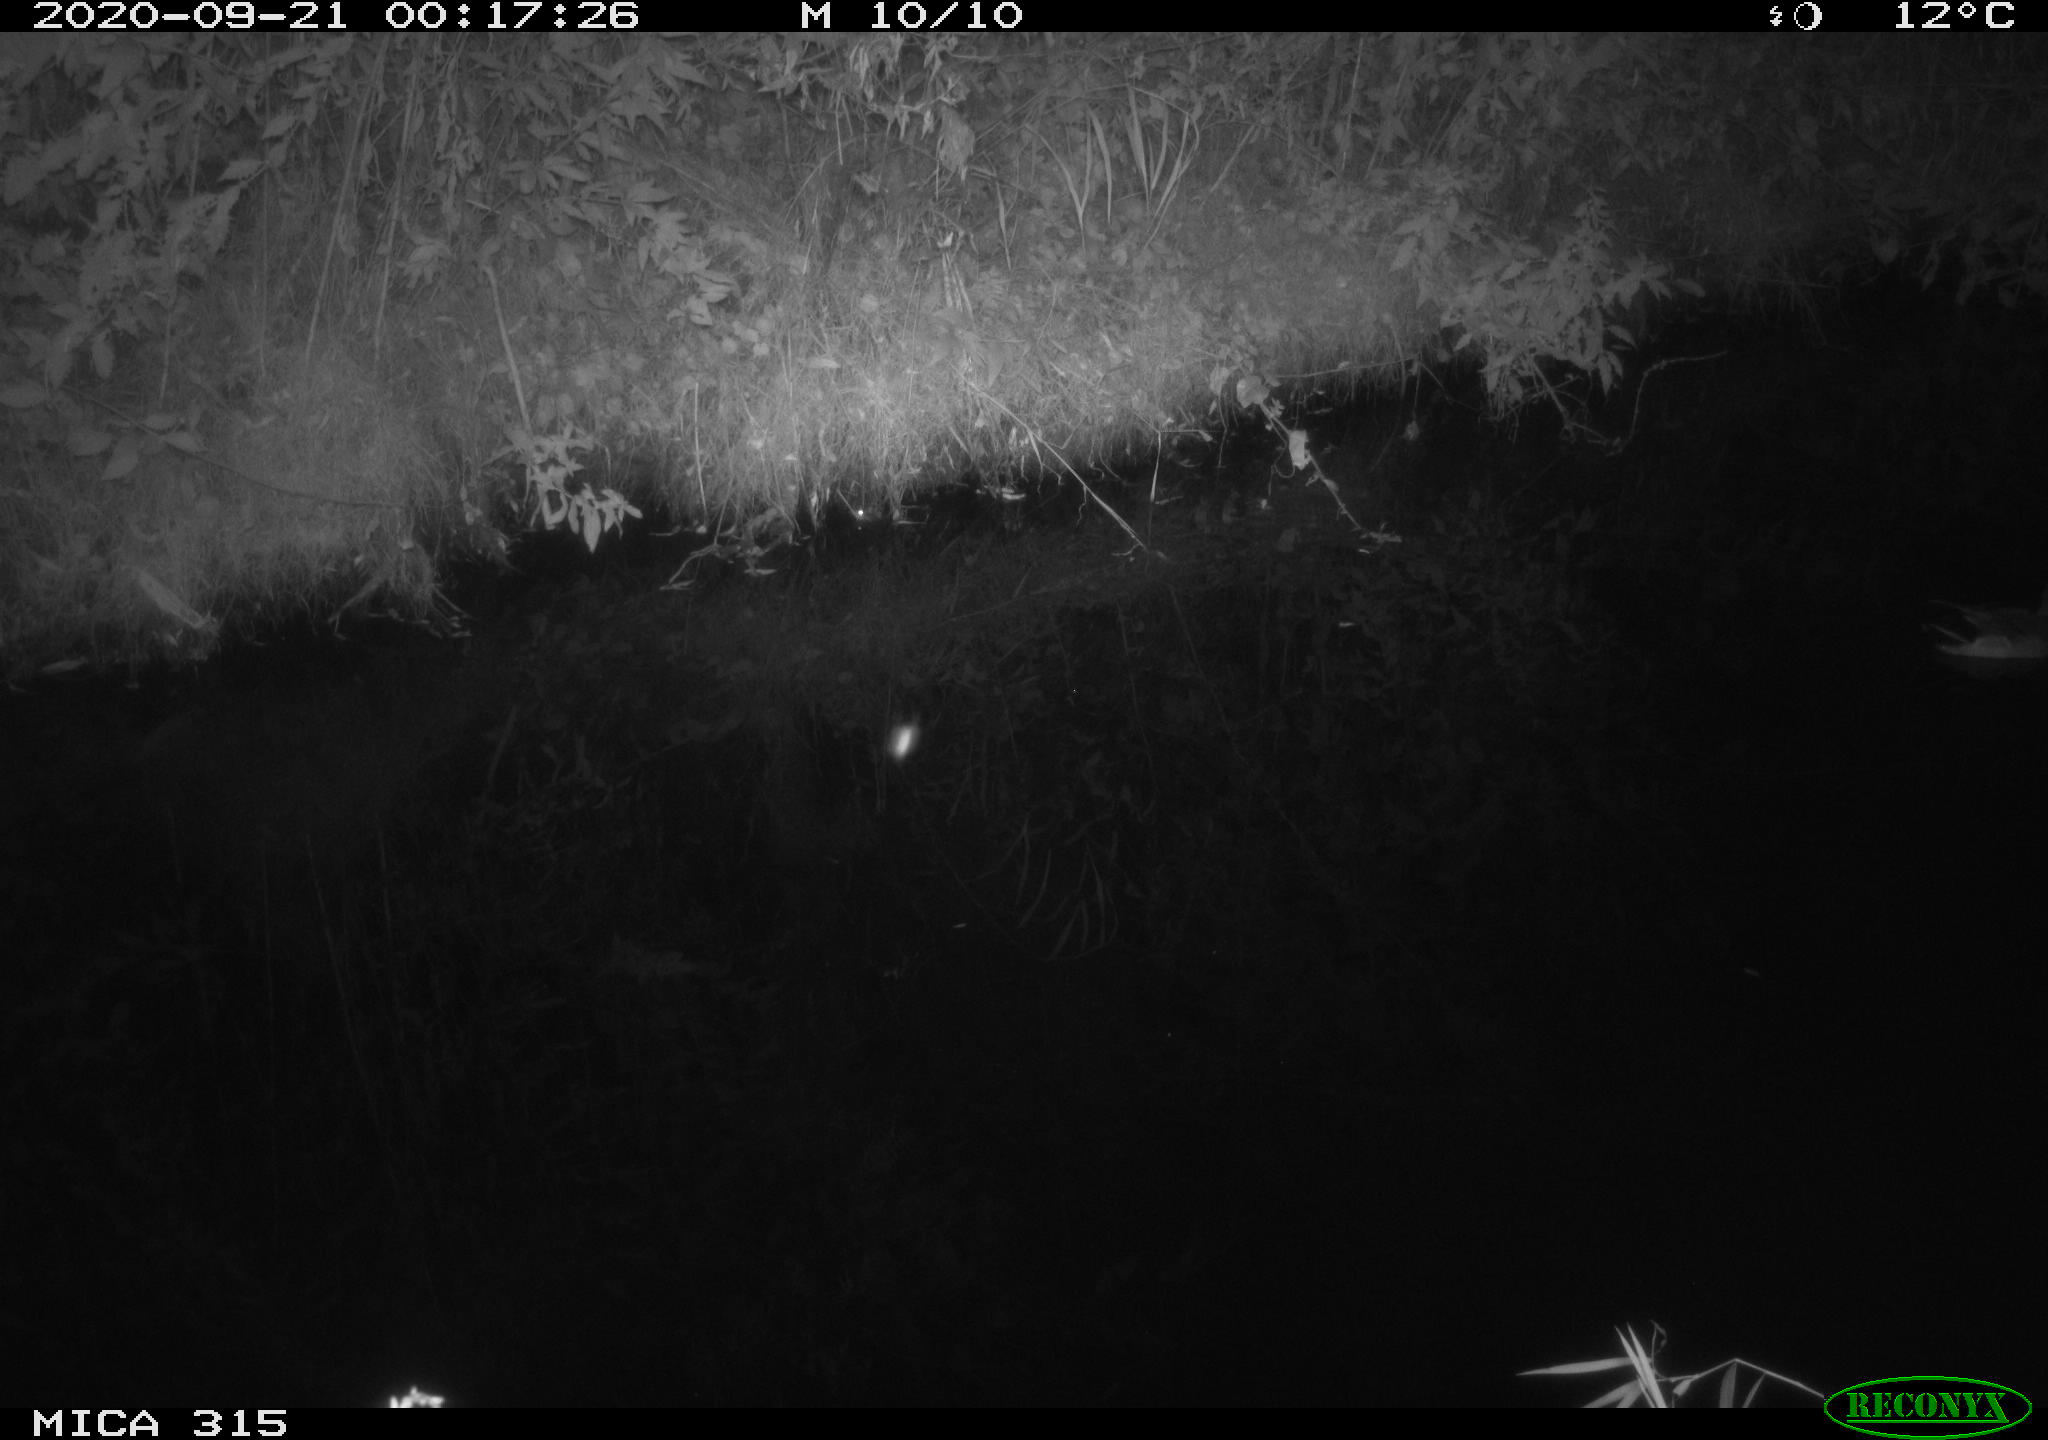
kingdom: Animalia
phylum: Chordata
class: Aves
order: Anseriformes
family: Anatidae
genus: Anas
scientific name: Anas platyrhynchos
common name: Mallard
